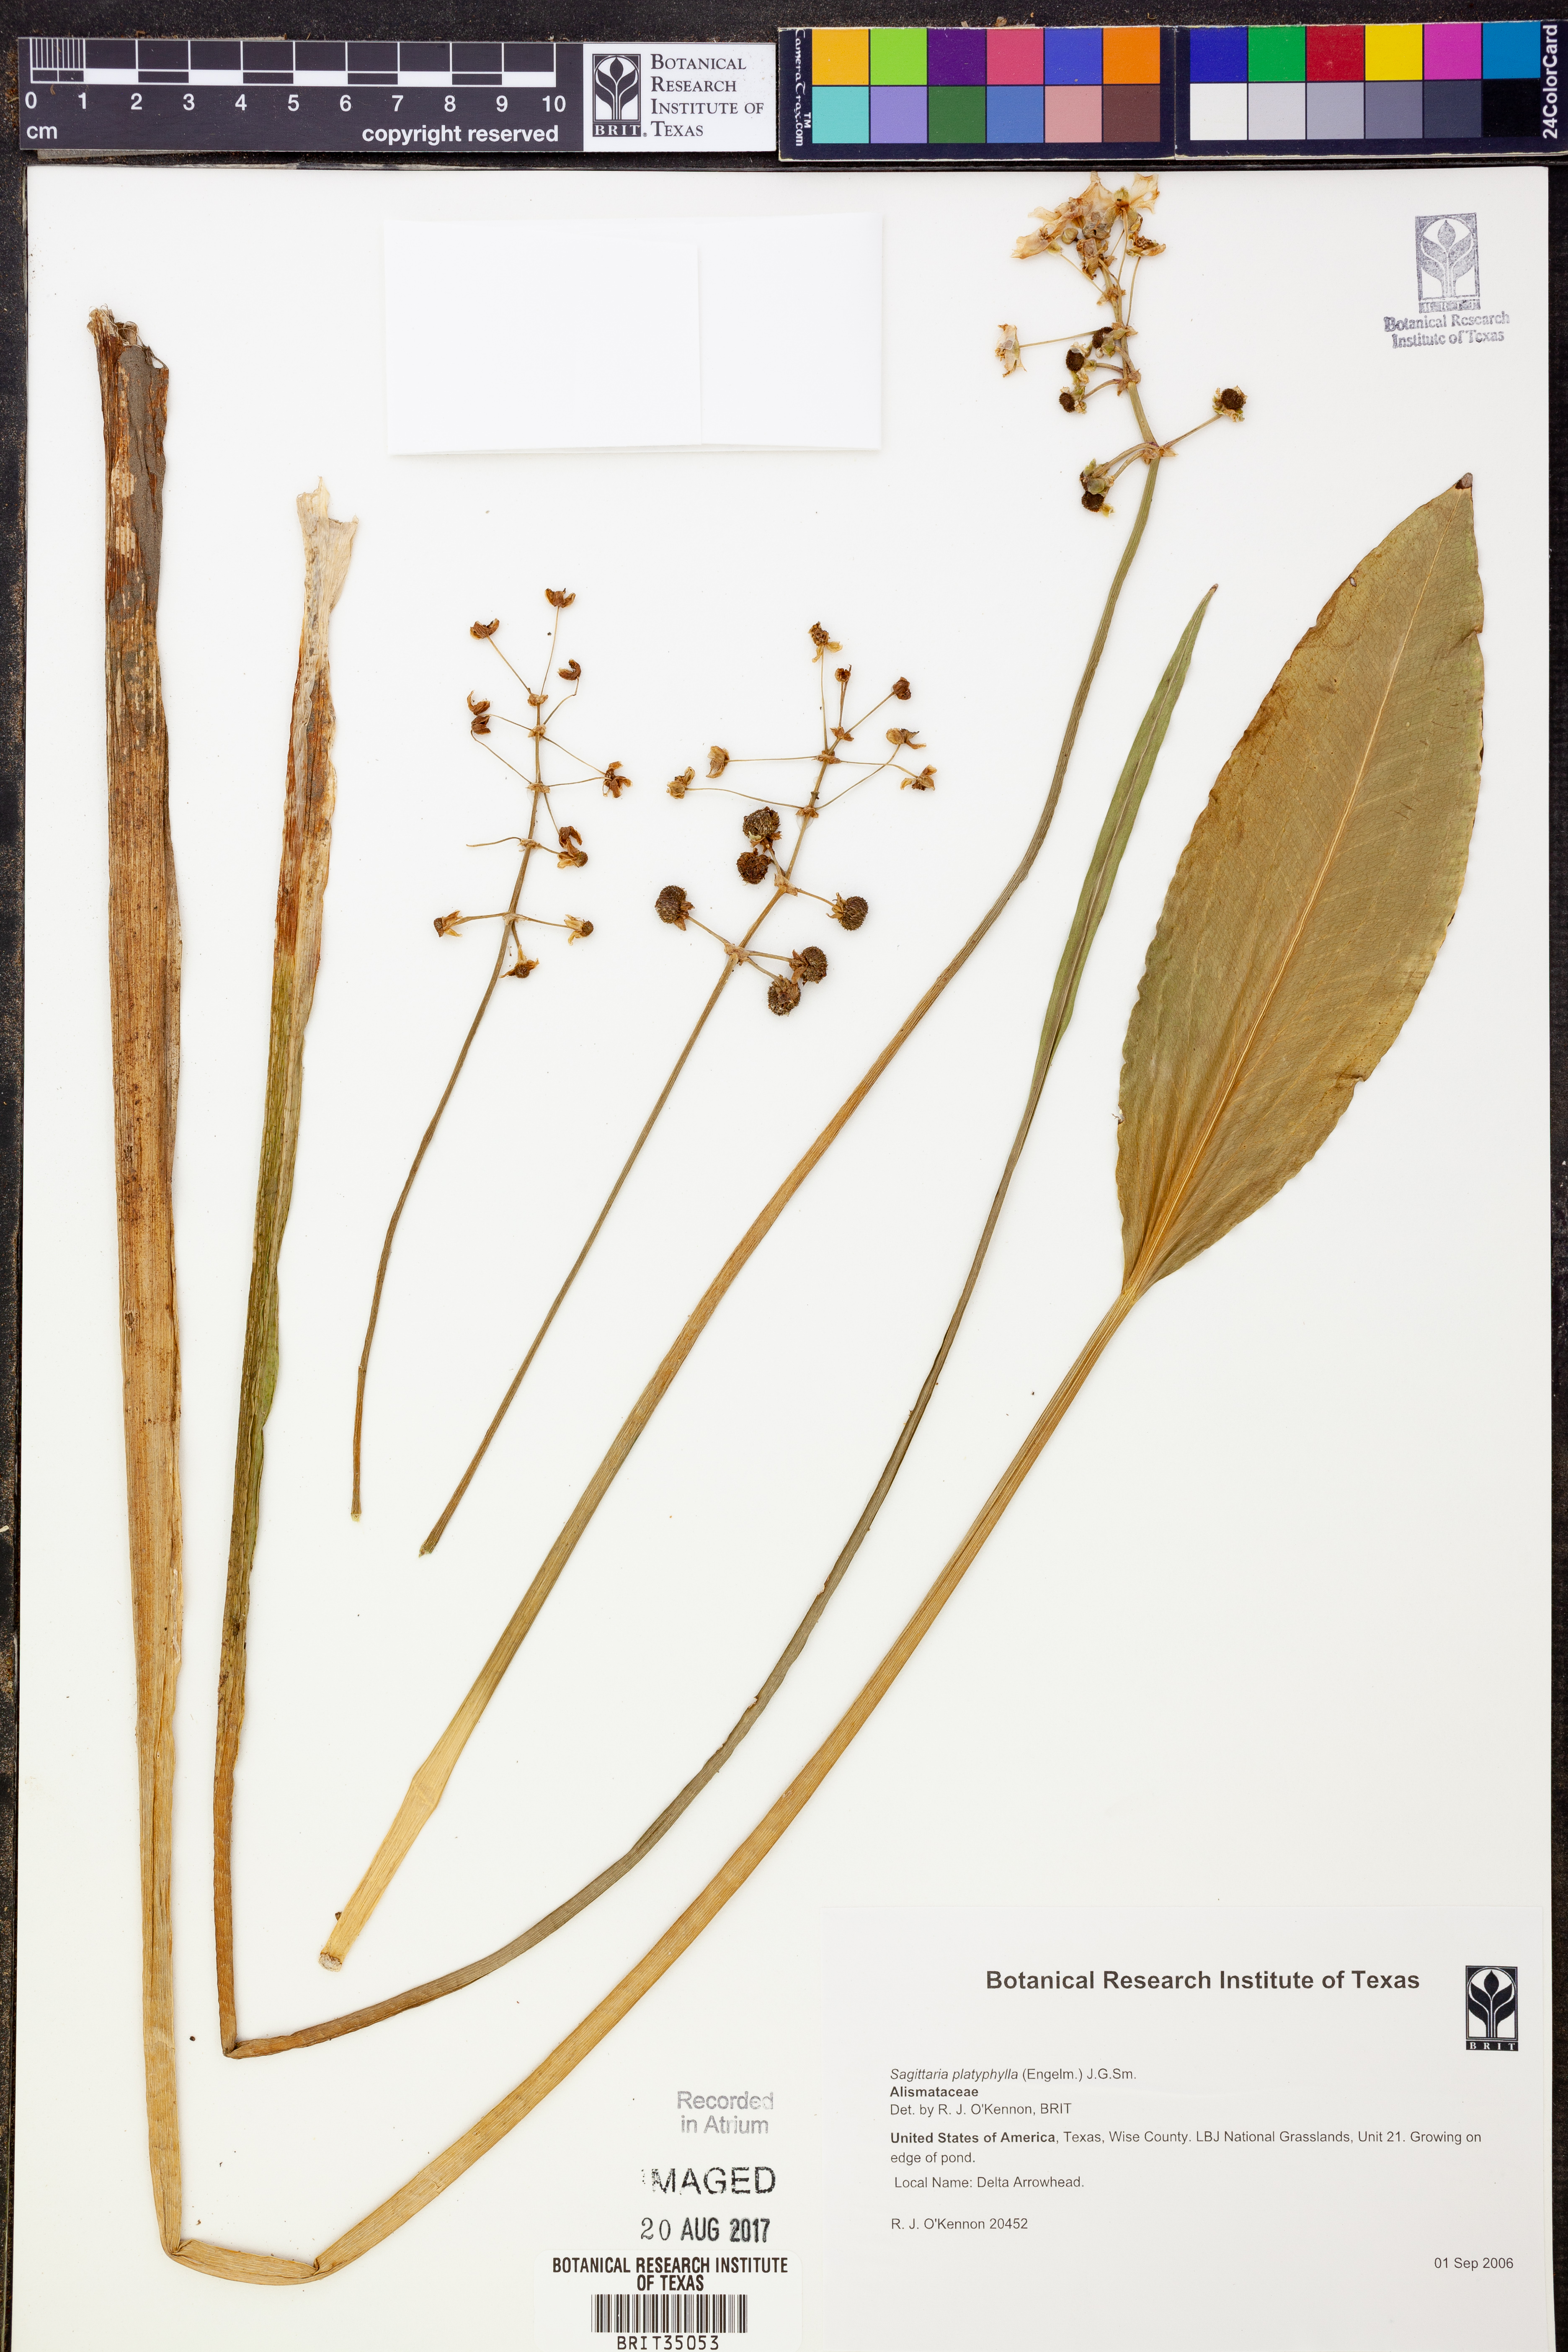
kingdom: Plantae
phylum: Tracheophyta
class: Liliopsida
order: Alismatales
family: Alismataceae
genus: Sagittaria
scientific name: Sagittaria platyphylla
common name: Broad-leaf arrowhead
